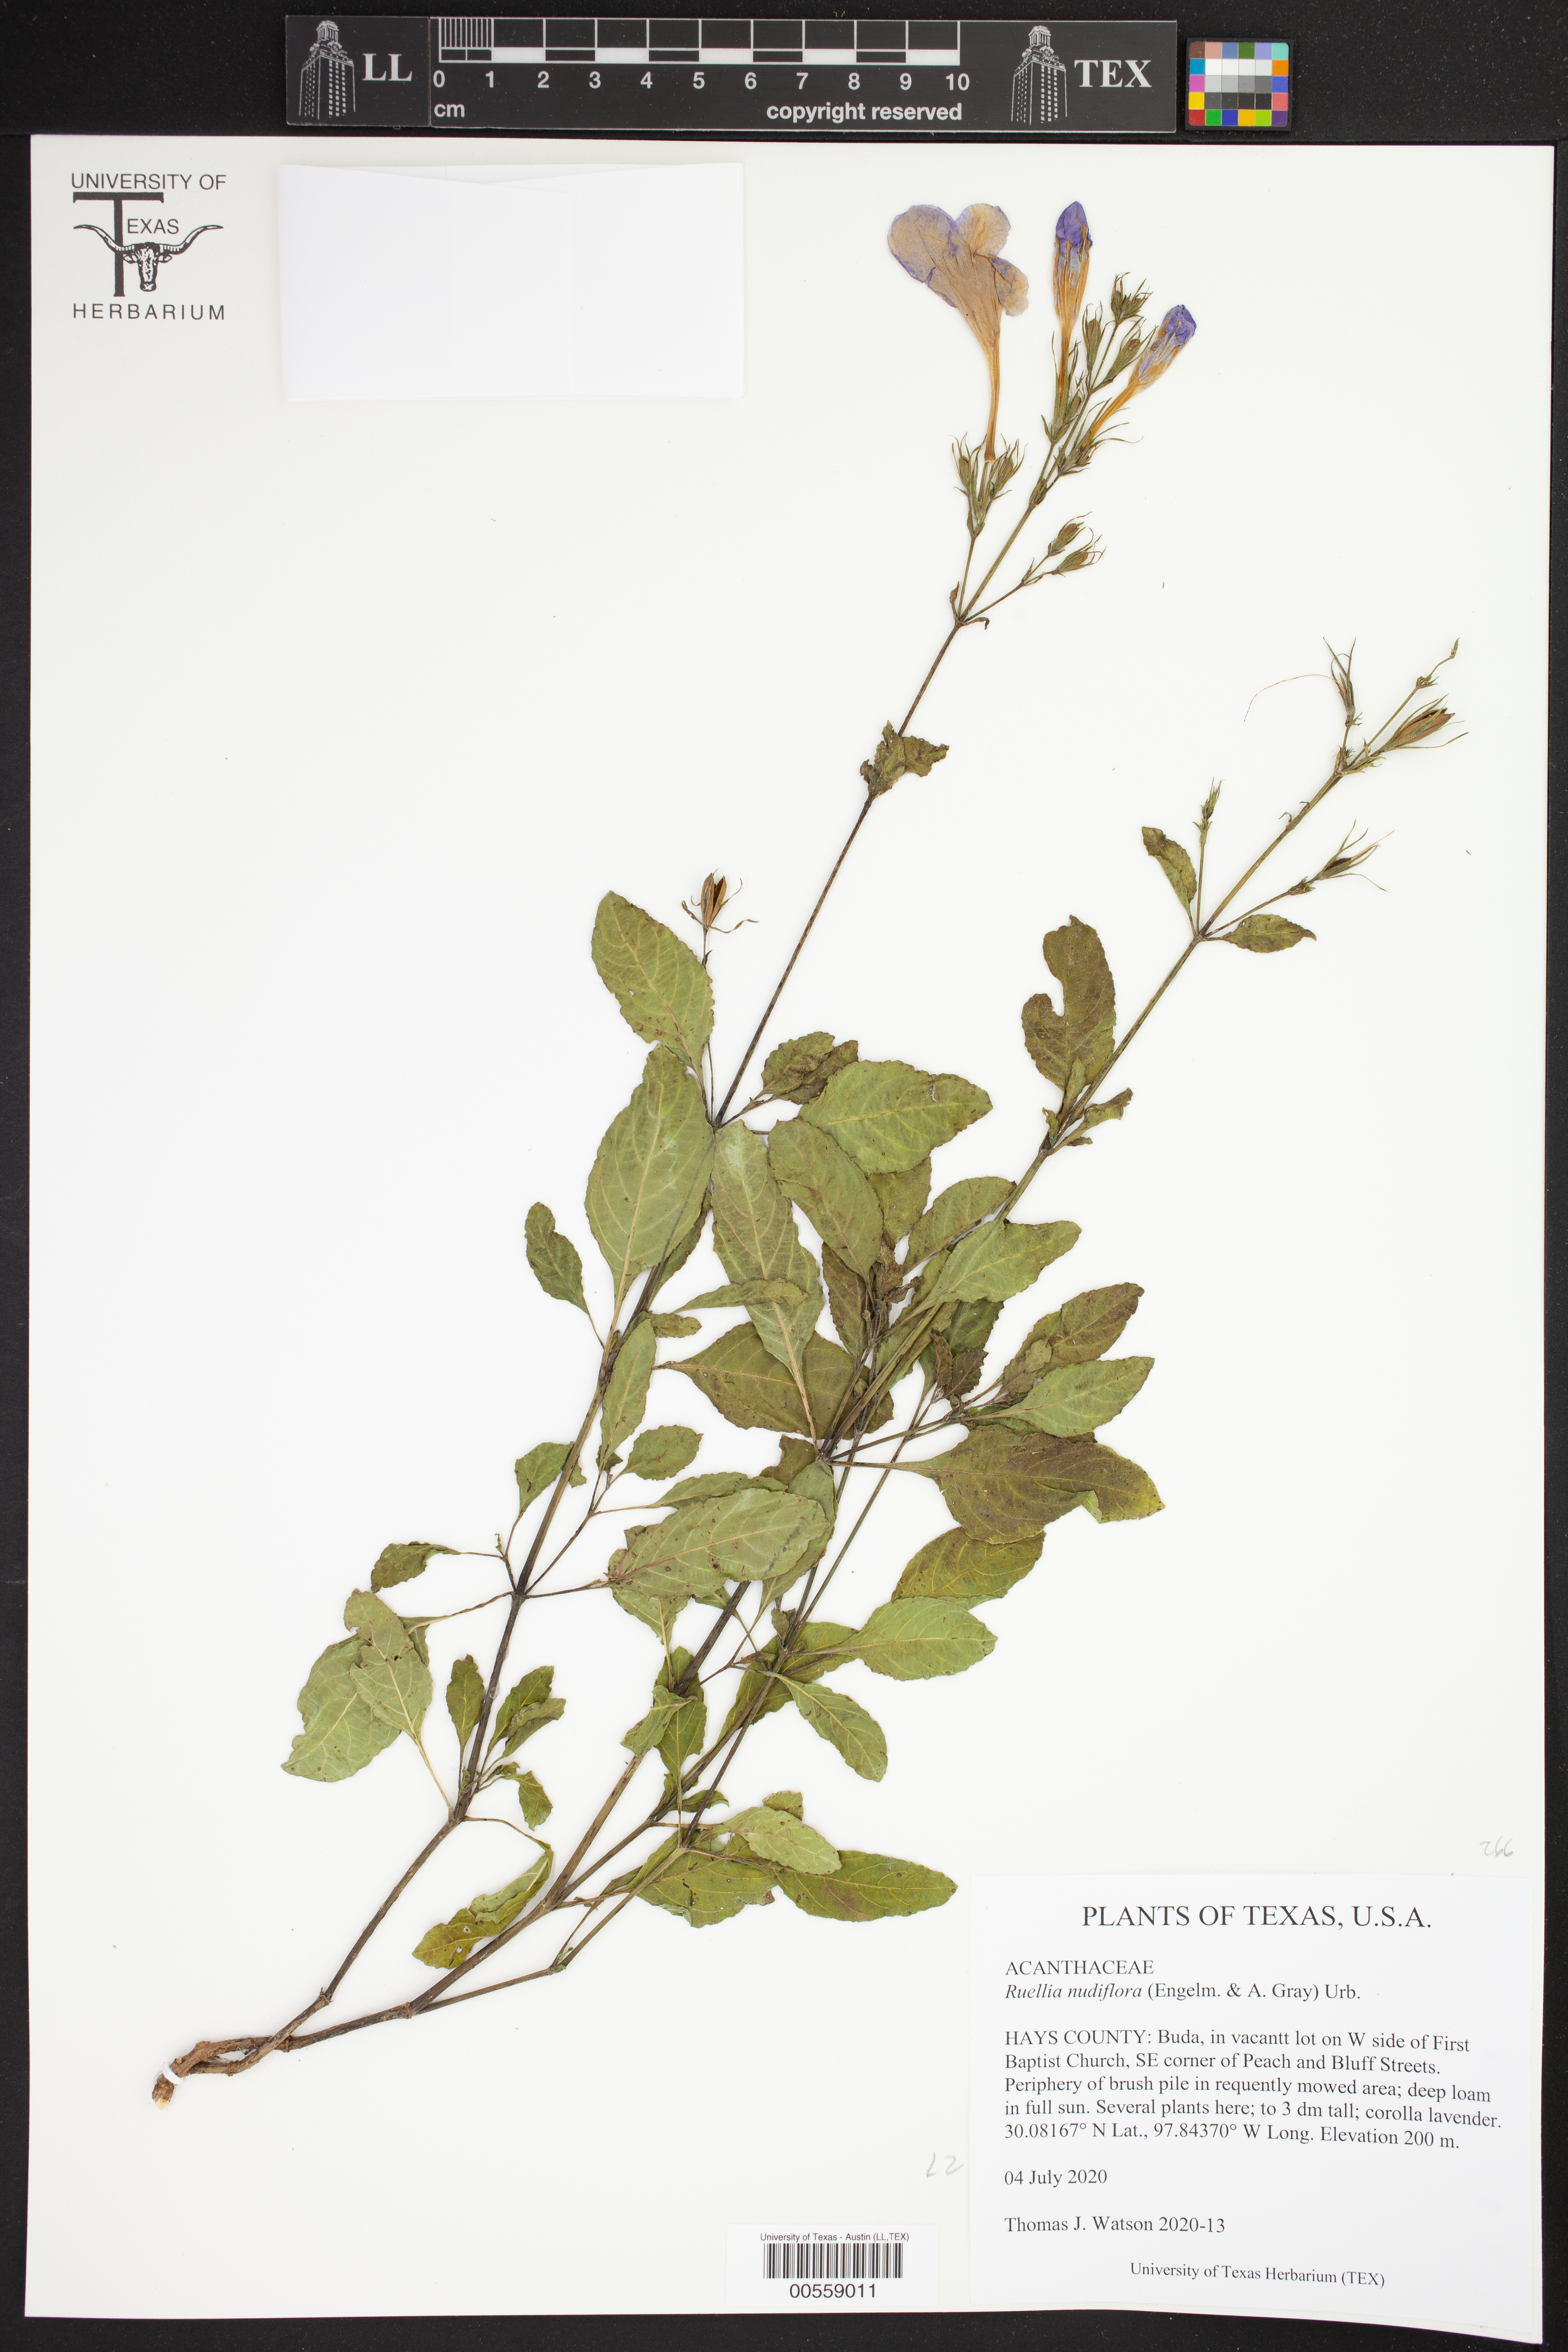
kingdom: Plantae
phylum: Tracheophyta
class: Magnoliopsida
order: Lamiales
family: Acanthaceae
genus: Ruellia
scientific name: Ruellia ciliatiflora
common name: Hairyflower wild petunia
